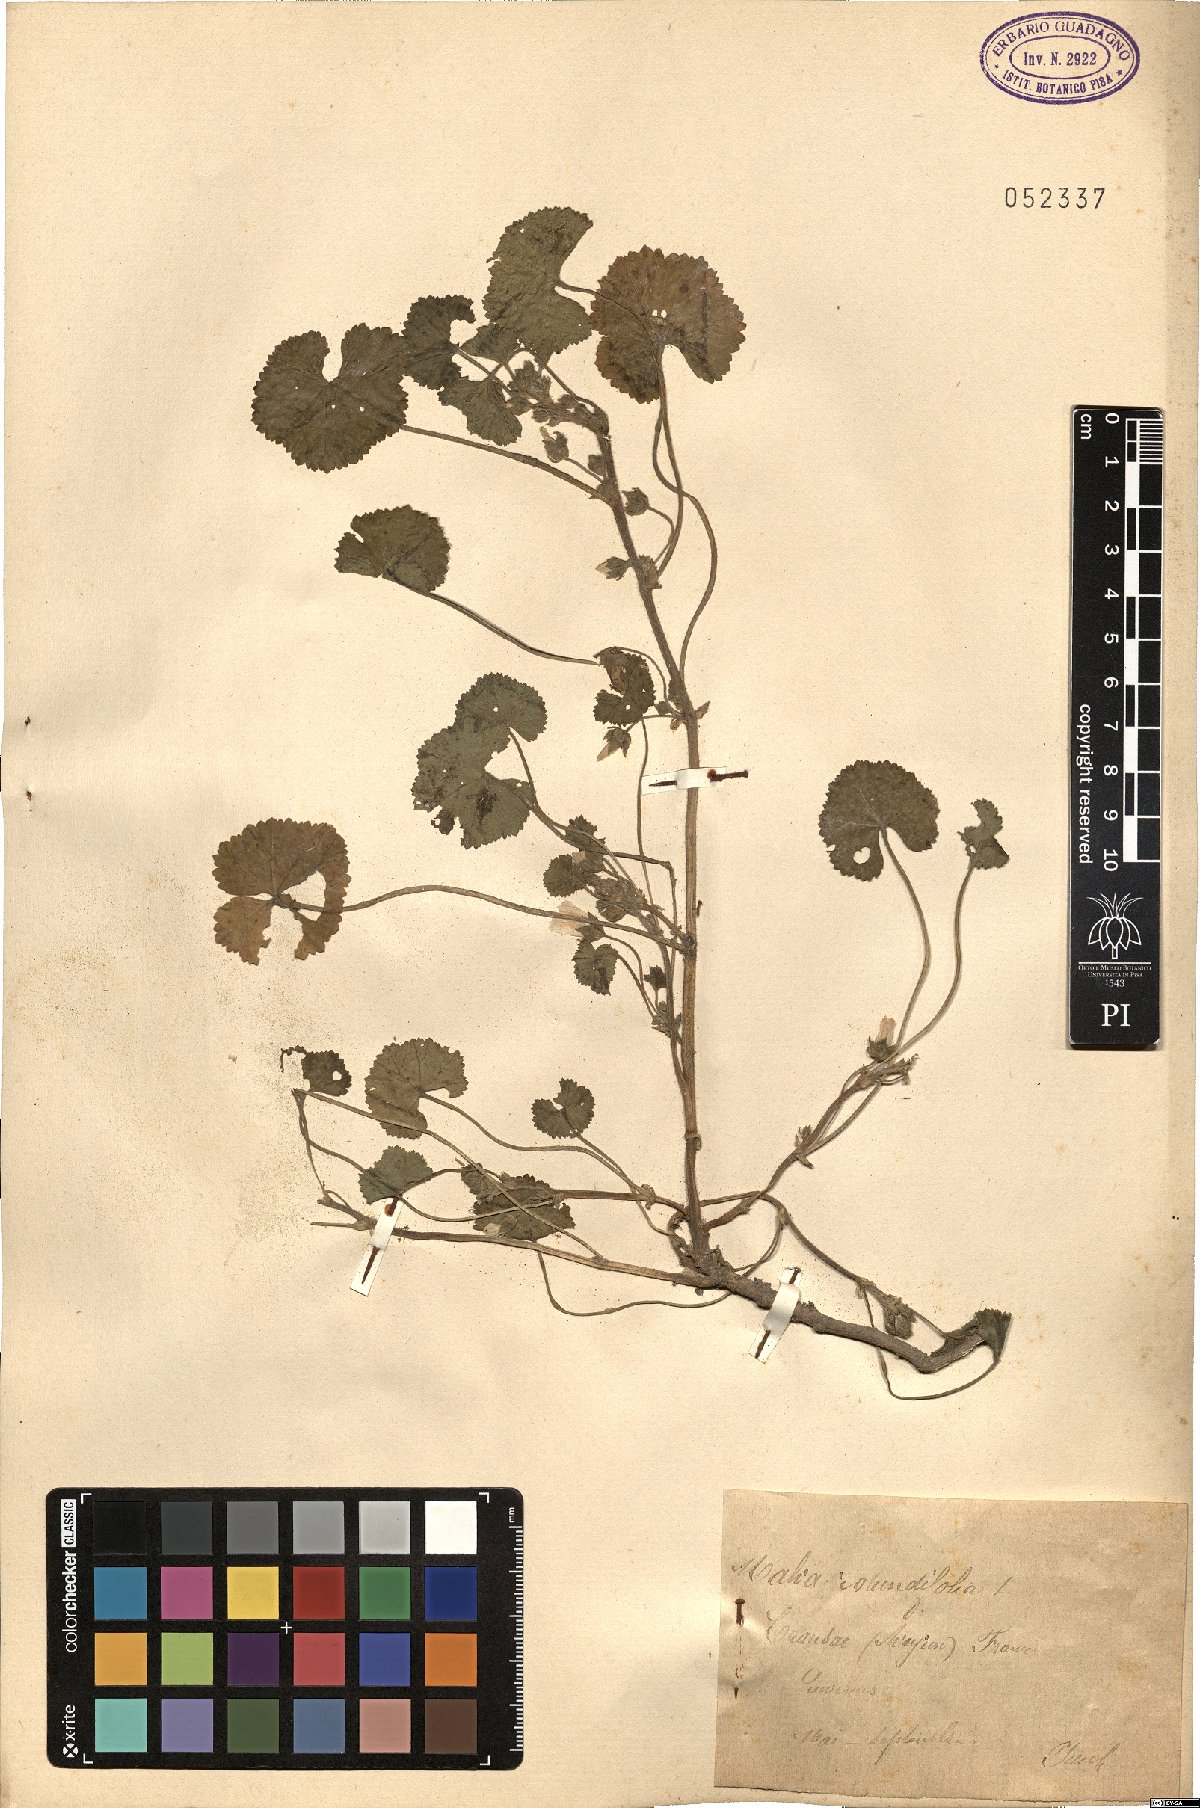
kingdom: Plantae
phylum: Tracheophyta
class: Magnoliopsida
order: Malvales
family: Malvaceae
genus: Malva
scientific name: Malva pusilla
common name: Small mallow
